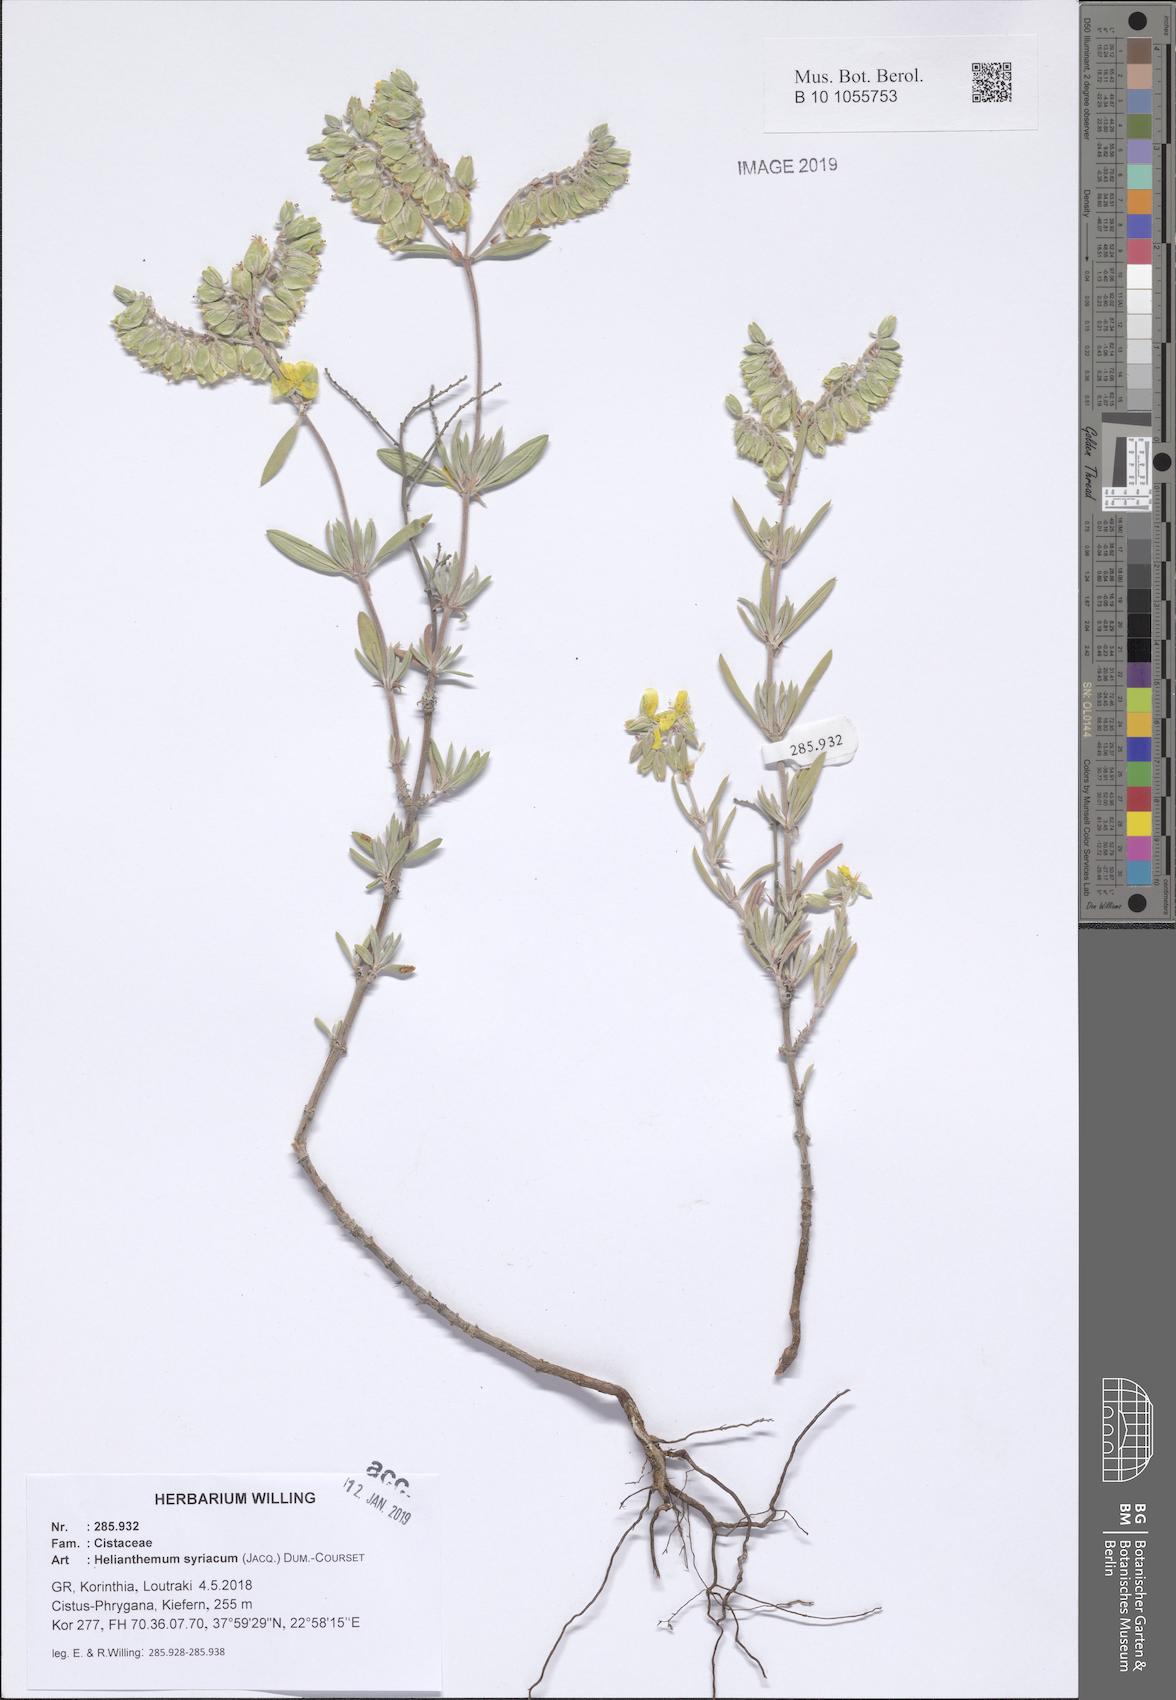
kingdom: Plantae
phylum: Tracheophyta
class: Magnoliopsida
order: Malvales
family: Cistaceae
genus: Helianthemum
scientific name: Helianthemum syriacum
